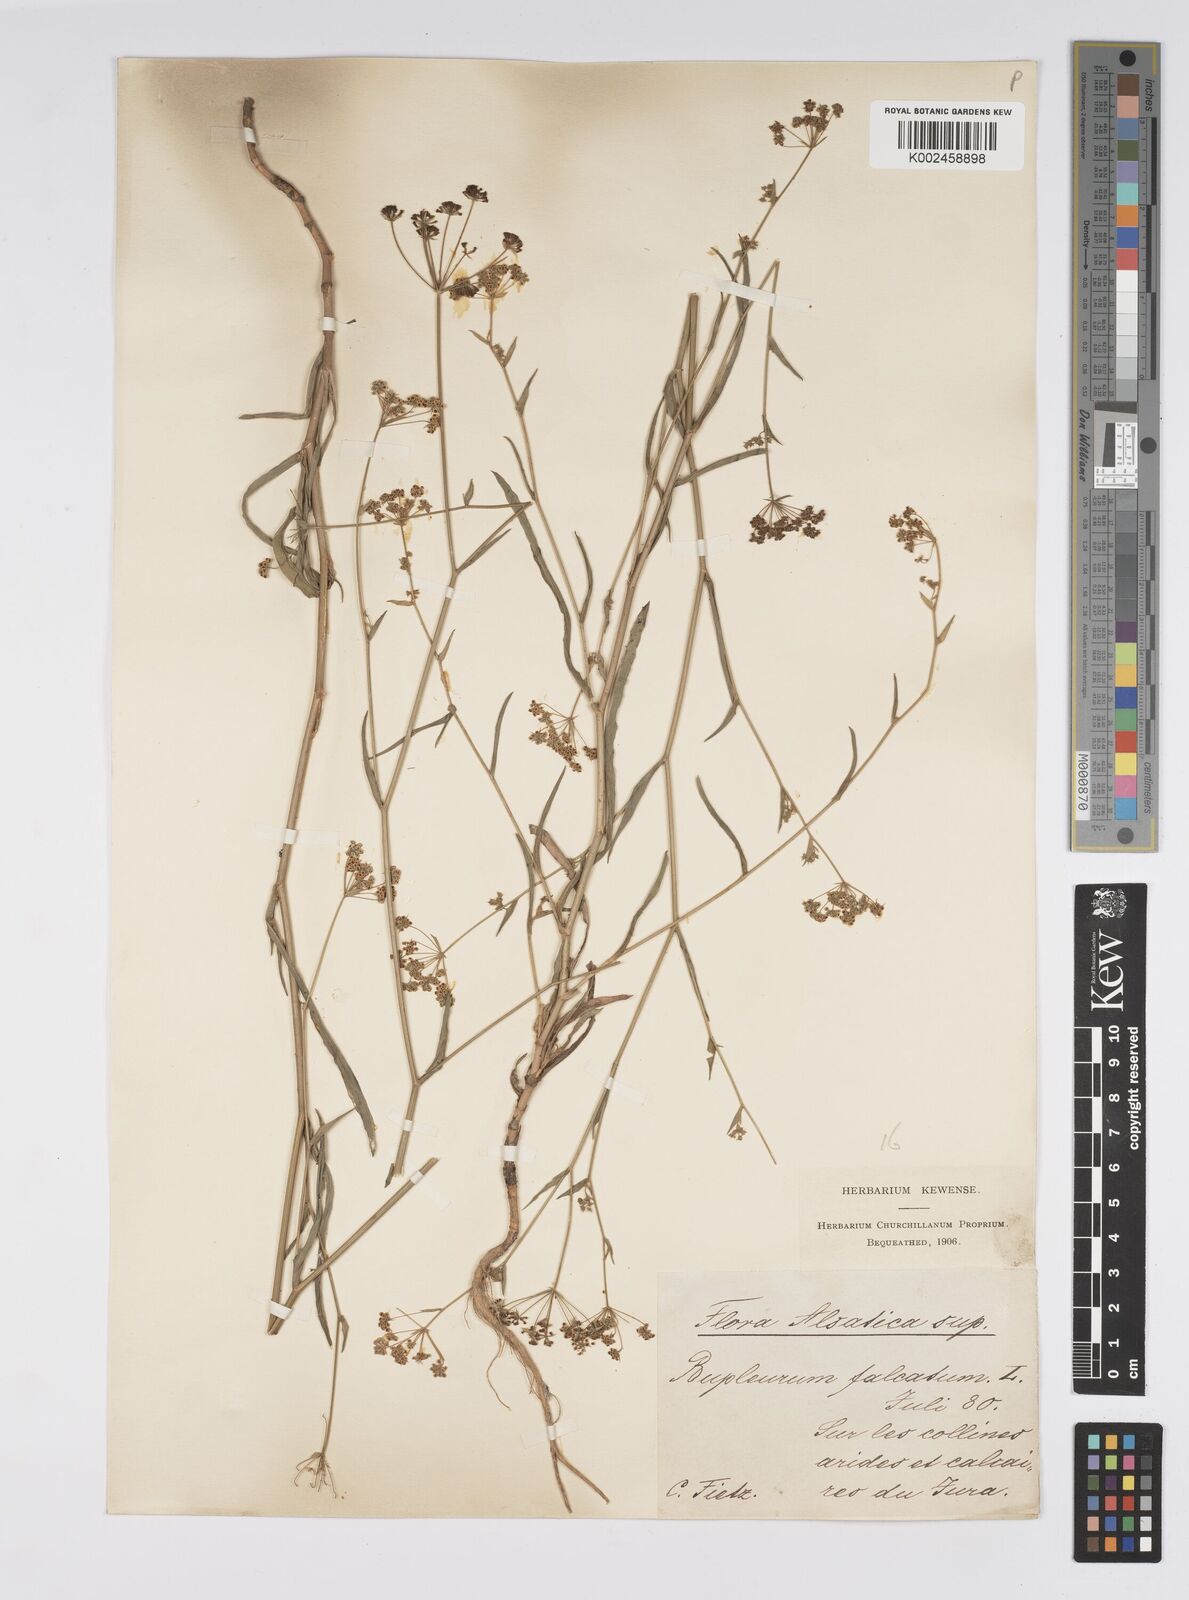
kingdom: Plantae
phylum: Tracheophyta
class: Magnoliopsida
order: Apiales
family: Apiaceae
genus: Bupleurum
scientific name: Bupleurum falcatum
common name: Sickle-leaved hare's-ear
